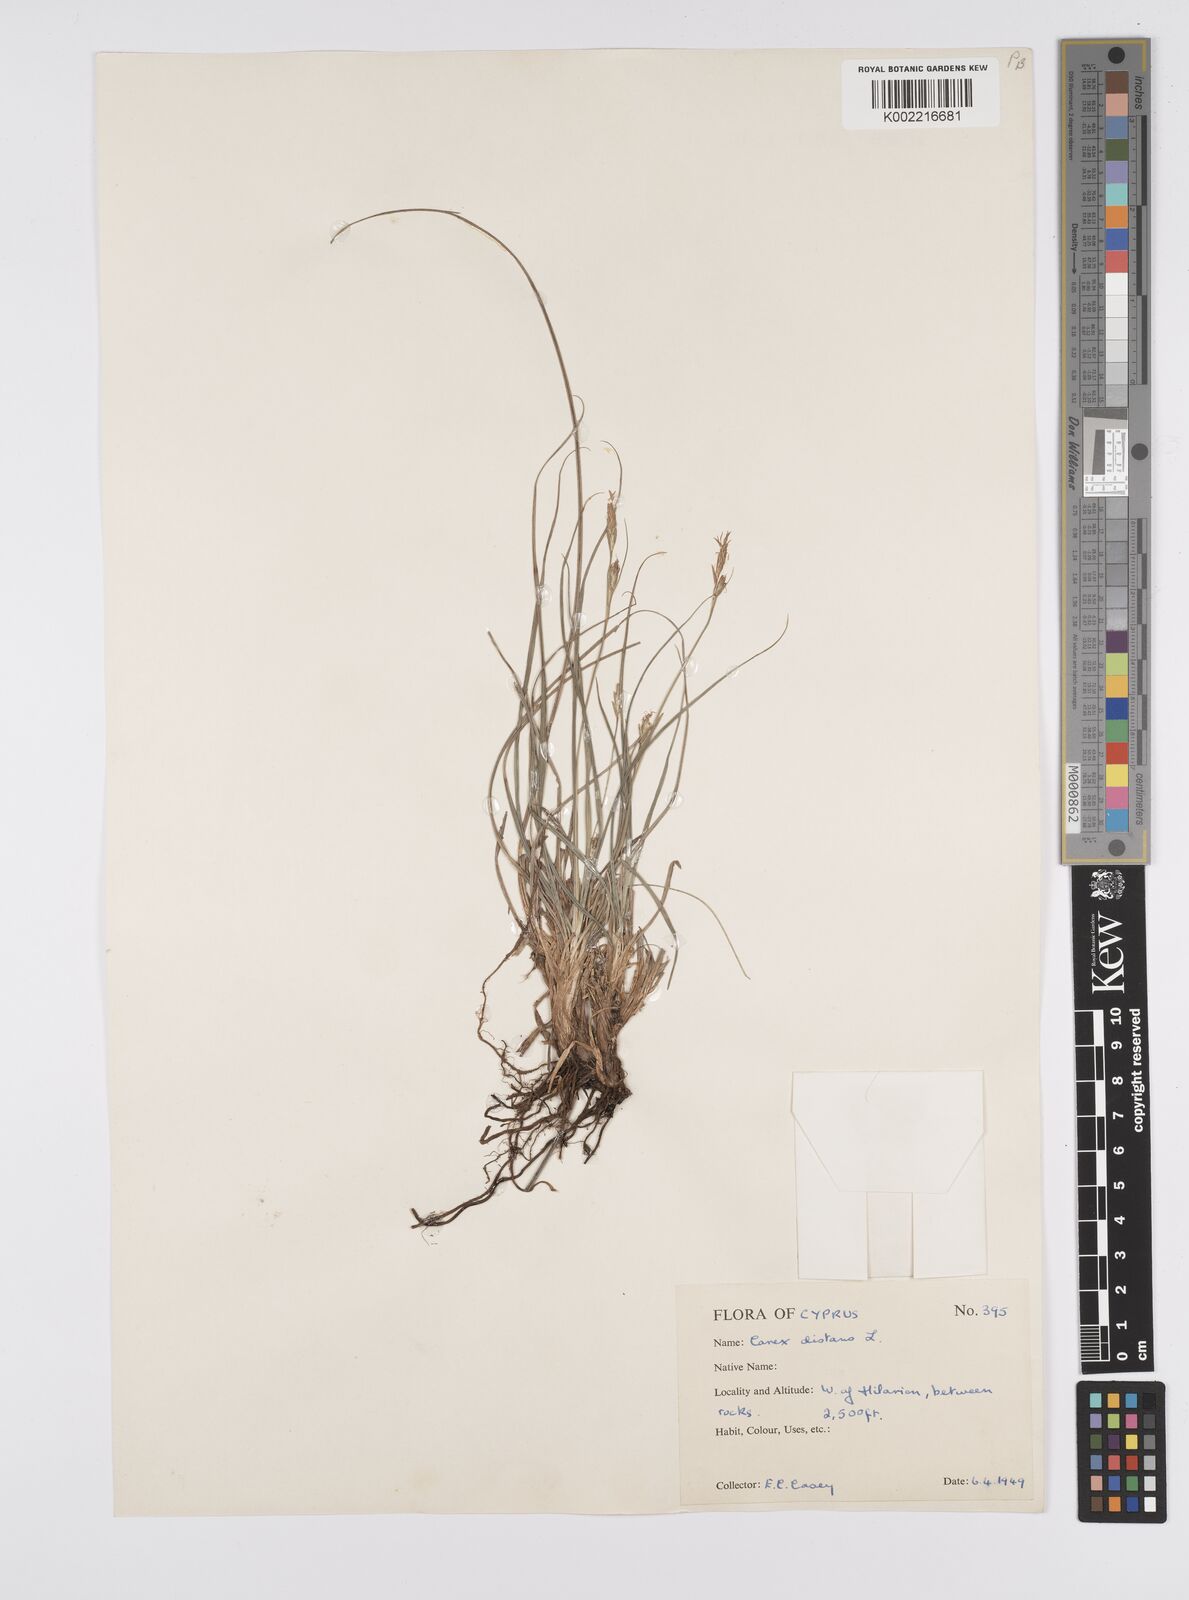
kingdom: Plantae
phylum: Tracheophyta
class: Liliopsida
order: Poales
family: Cyperaceae
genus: Carex
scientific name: Carex halleriana
